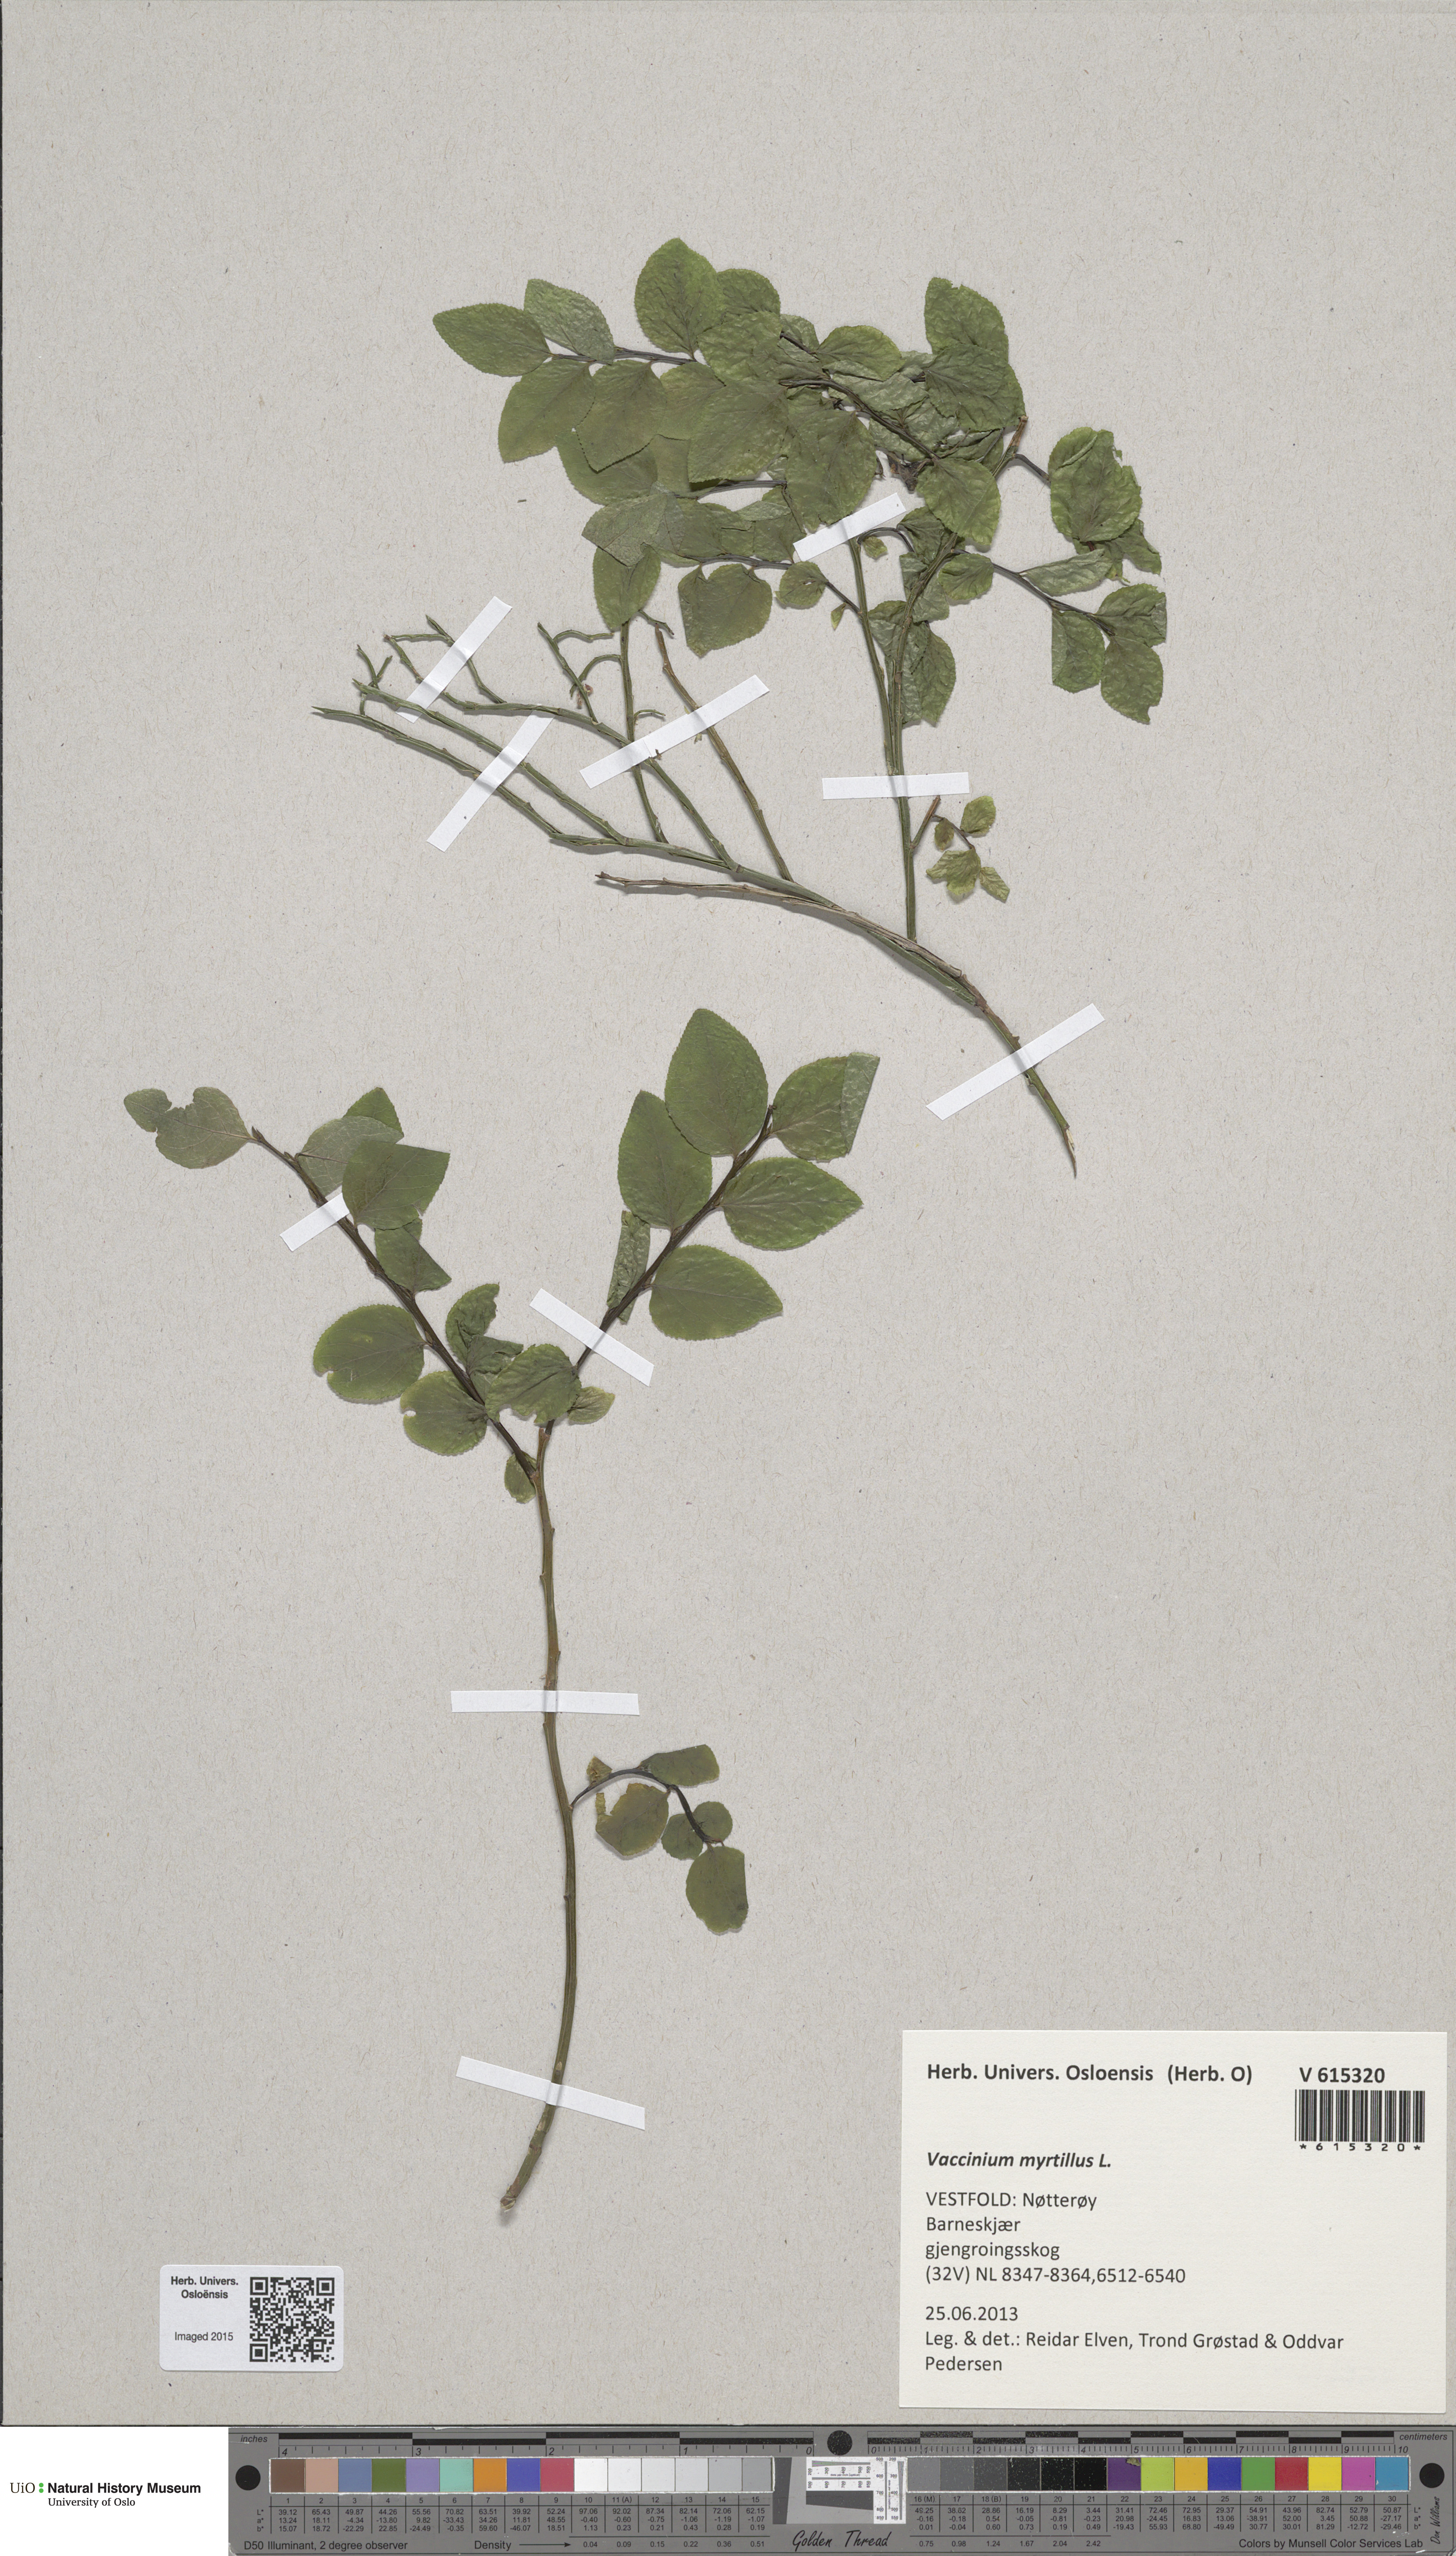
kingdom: Plantae
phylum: Tracheophyta
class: Magnoliopsida
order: Ericales
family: Ericaceae
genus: Vaccinium
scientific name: Vaccinium myrtillus
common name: Bilberry
